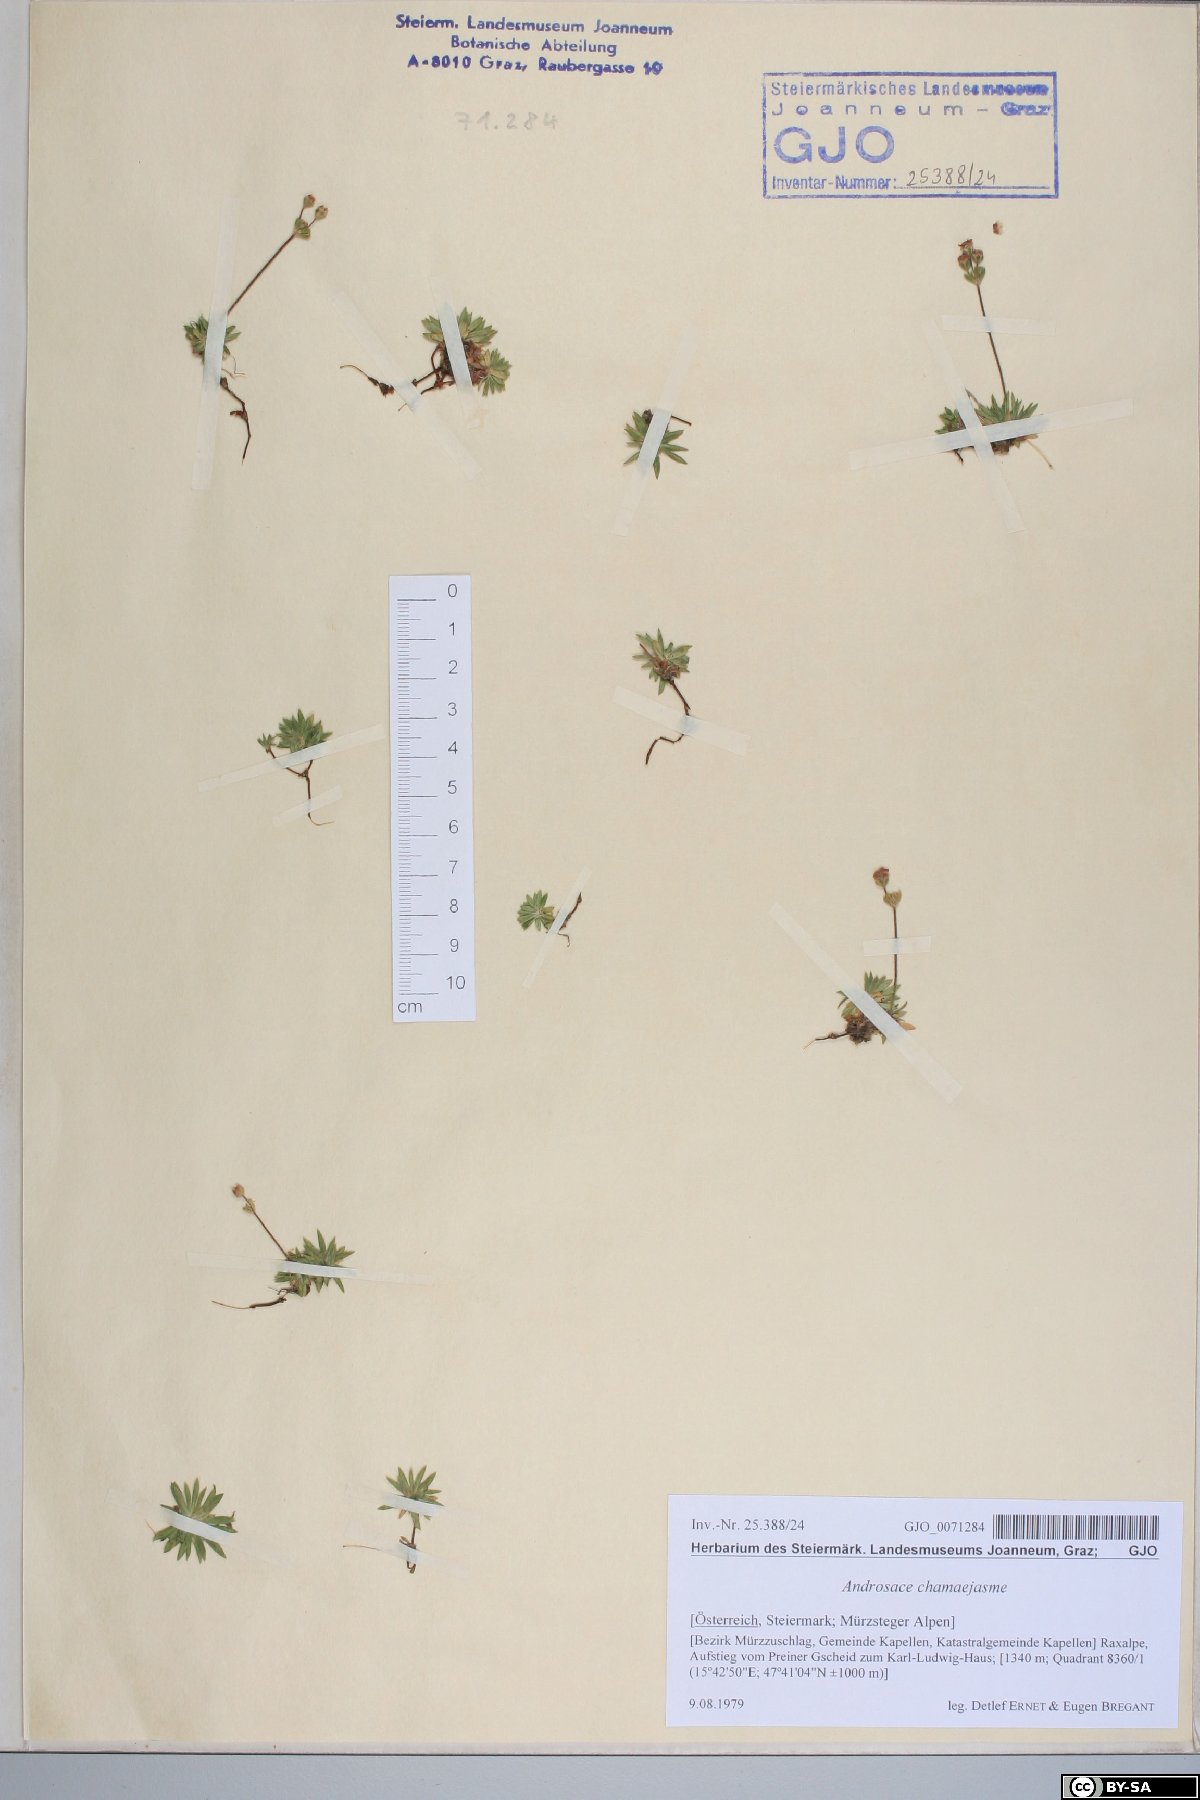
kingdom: Plantae
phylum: Tracheophyta
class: Magnoliopsida
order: Ericales
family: Primulaceae
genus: Androsace
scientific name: Androsace chamaejasme
